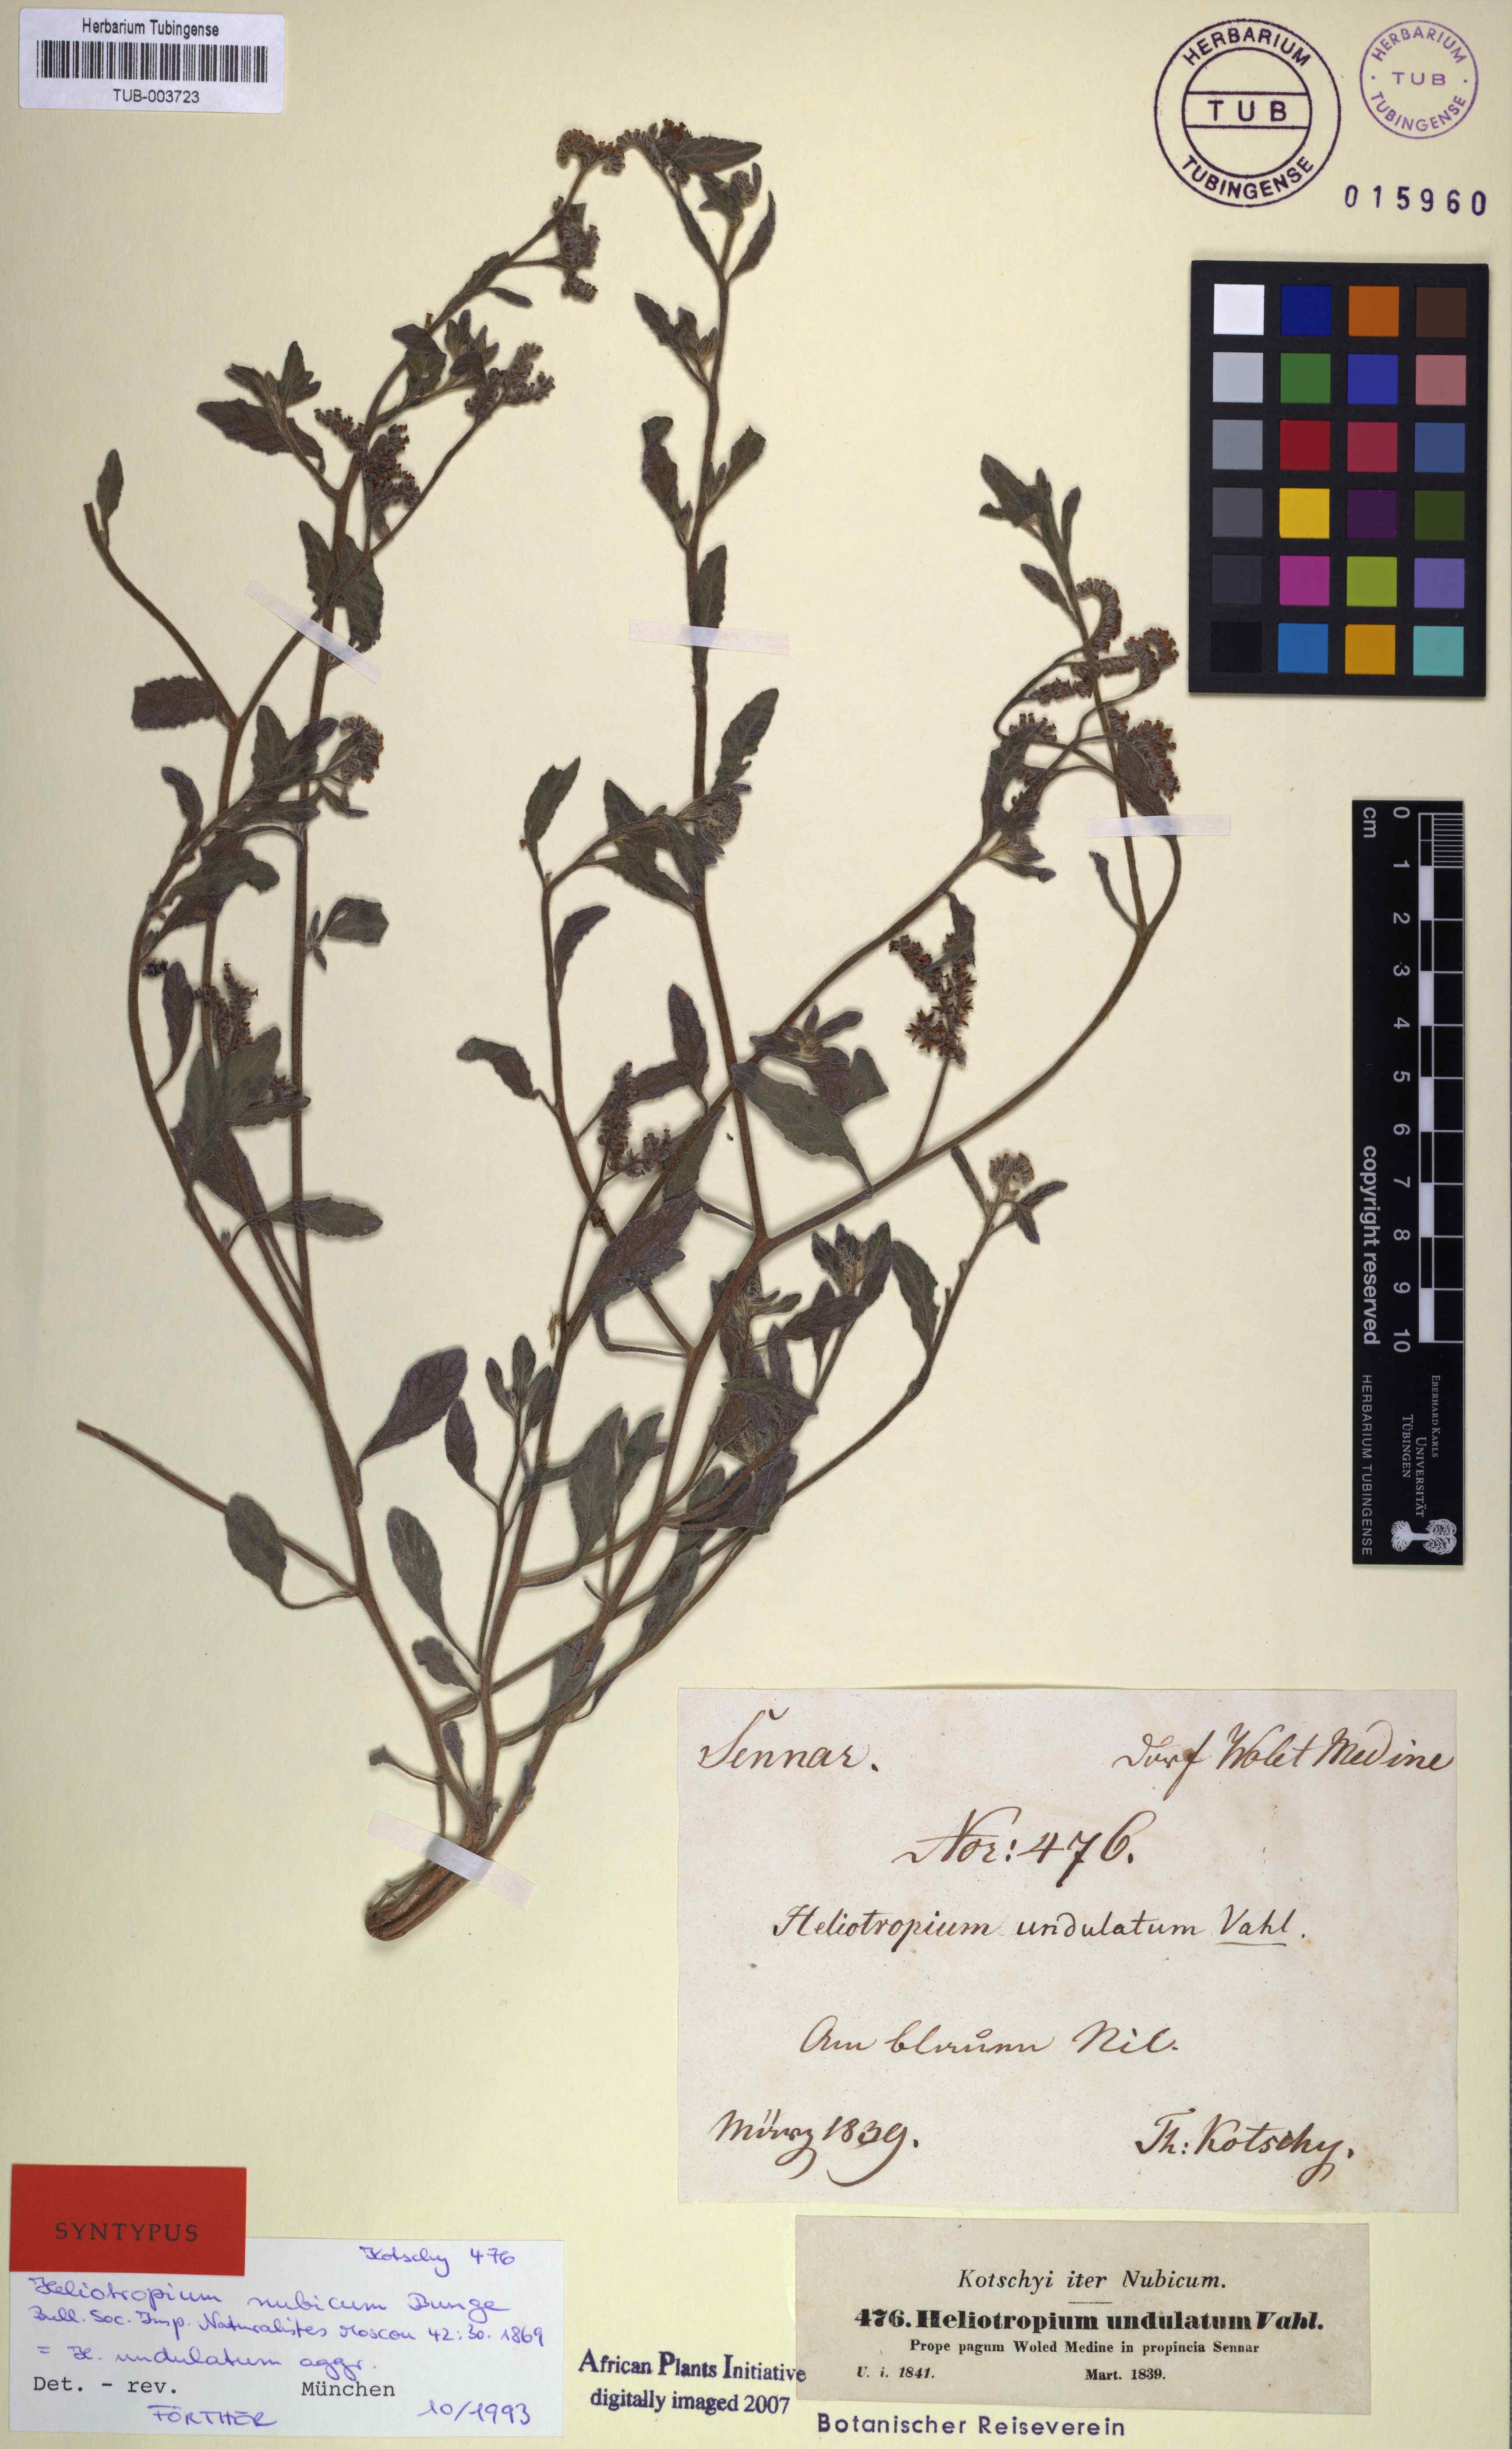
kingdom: Plantae
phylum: Tracheophyta
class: Magnoliopsida
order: Boraginales
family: Heliotropiaceae
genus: Heliotropium
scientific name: Heliotropium bacciferum
